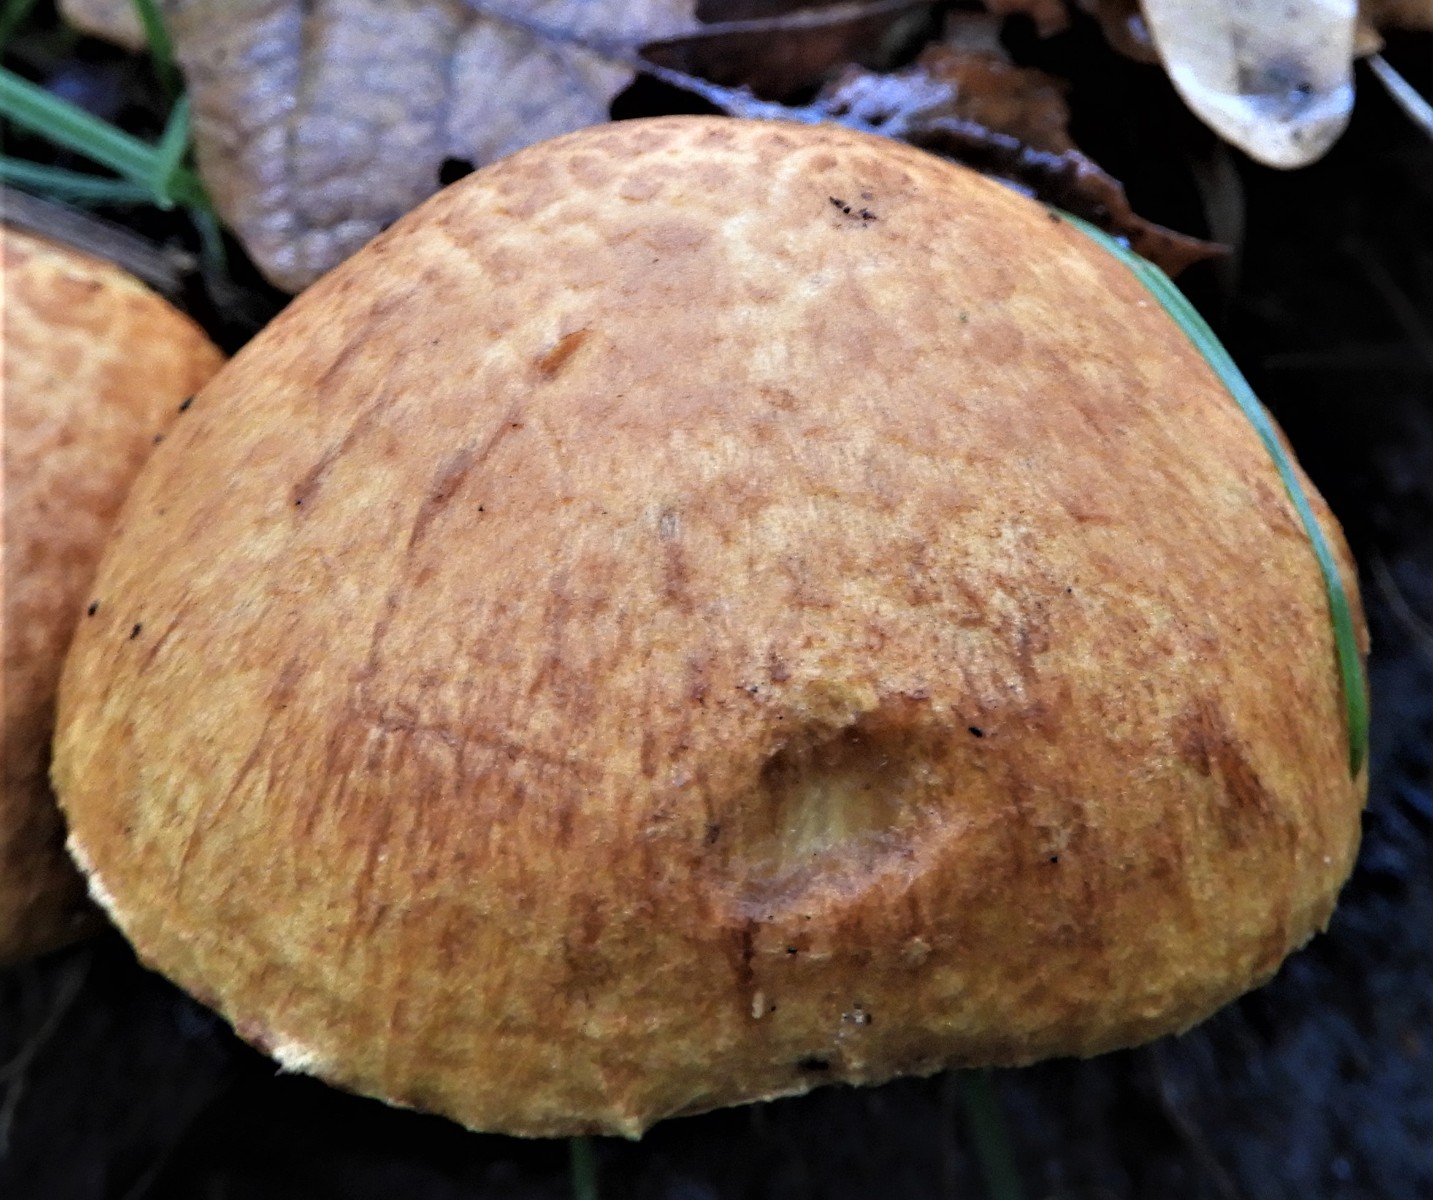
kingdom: Fungi
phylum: Basidiomycota
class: Agaricomycetes
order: Agaricales
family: Hymenogastraceae
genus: Gymnopilus
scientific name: Gymnopilus spectabilis
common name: fibret flammehat
